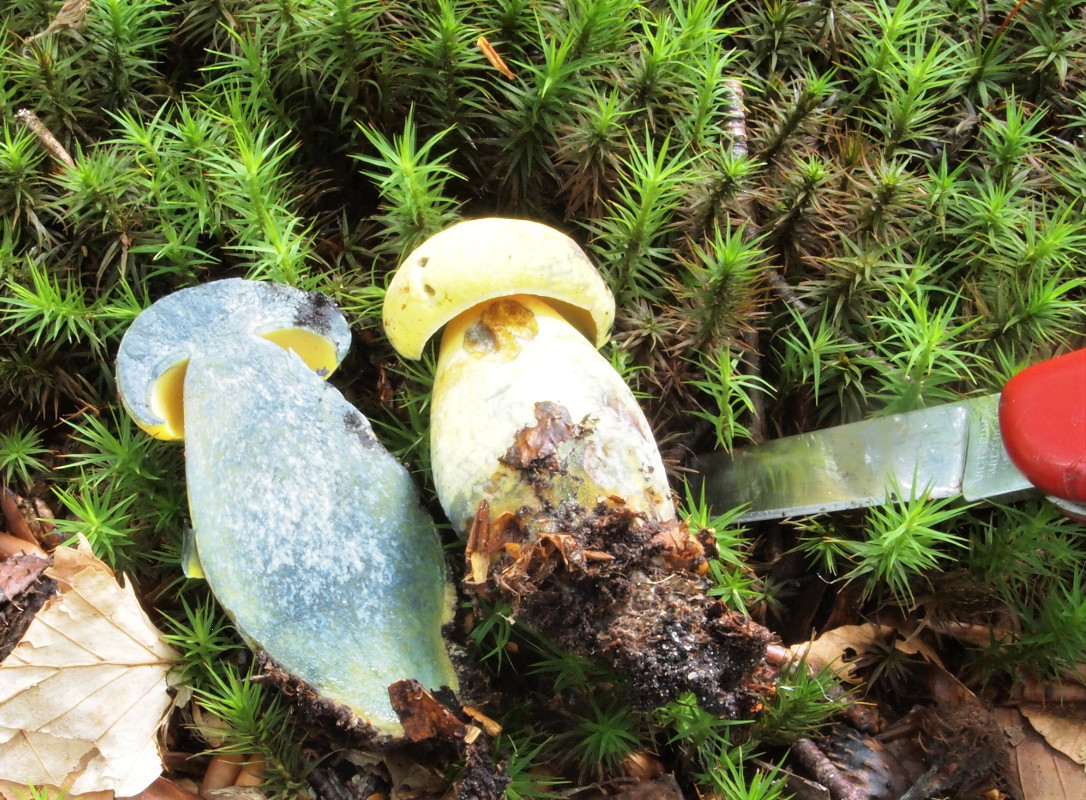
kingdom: Fungi
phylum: Basidiomycota
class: Agaricomycetes
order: Boletales
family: Boletaceae
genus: Neoboletus
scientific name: Neoboletus praestigiator
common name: gul indigorørhat
